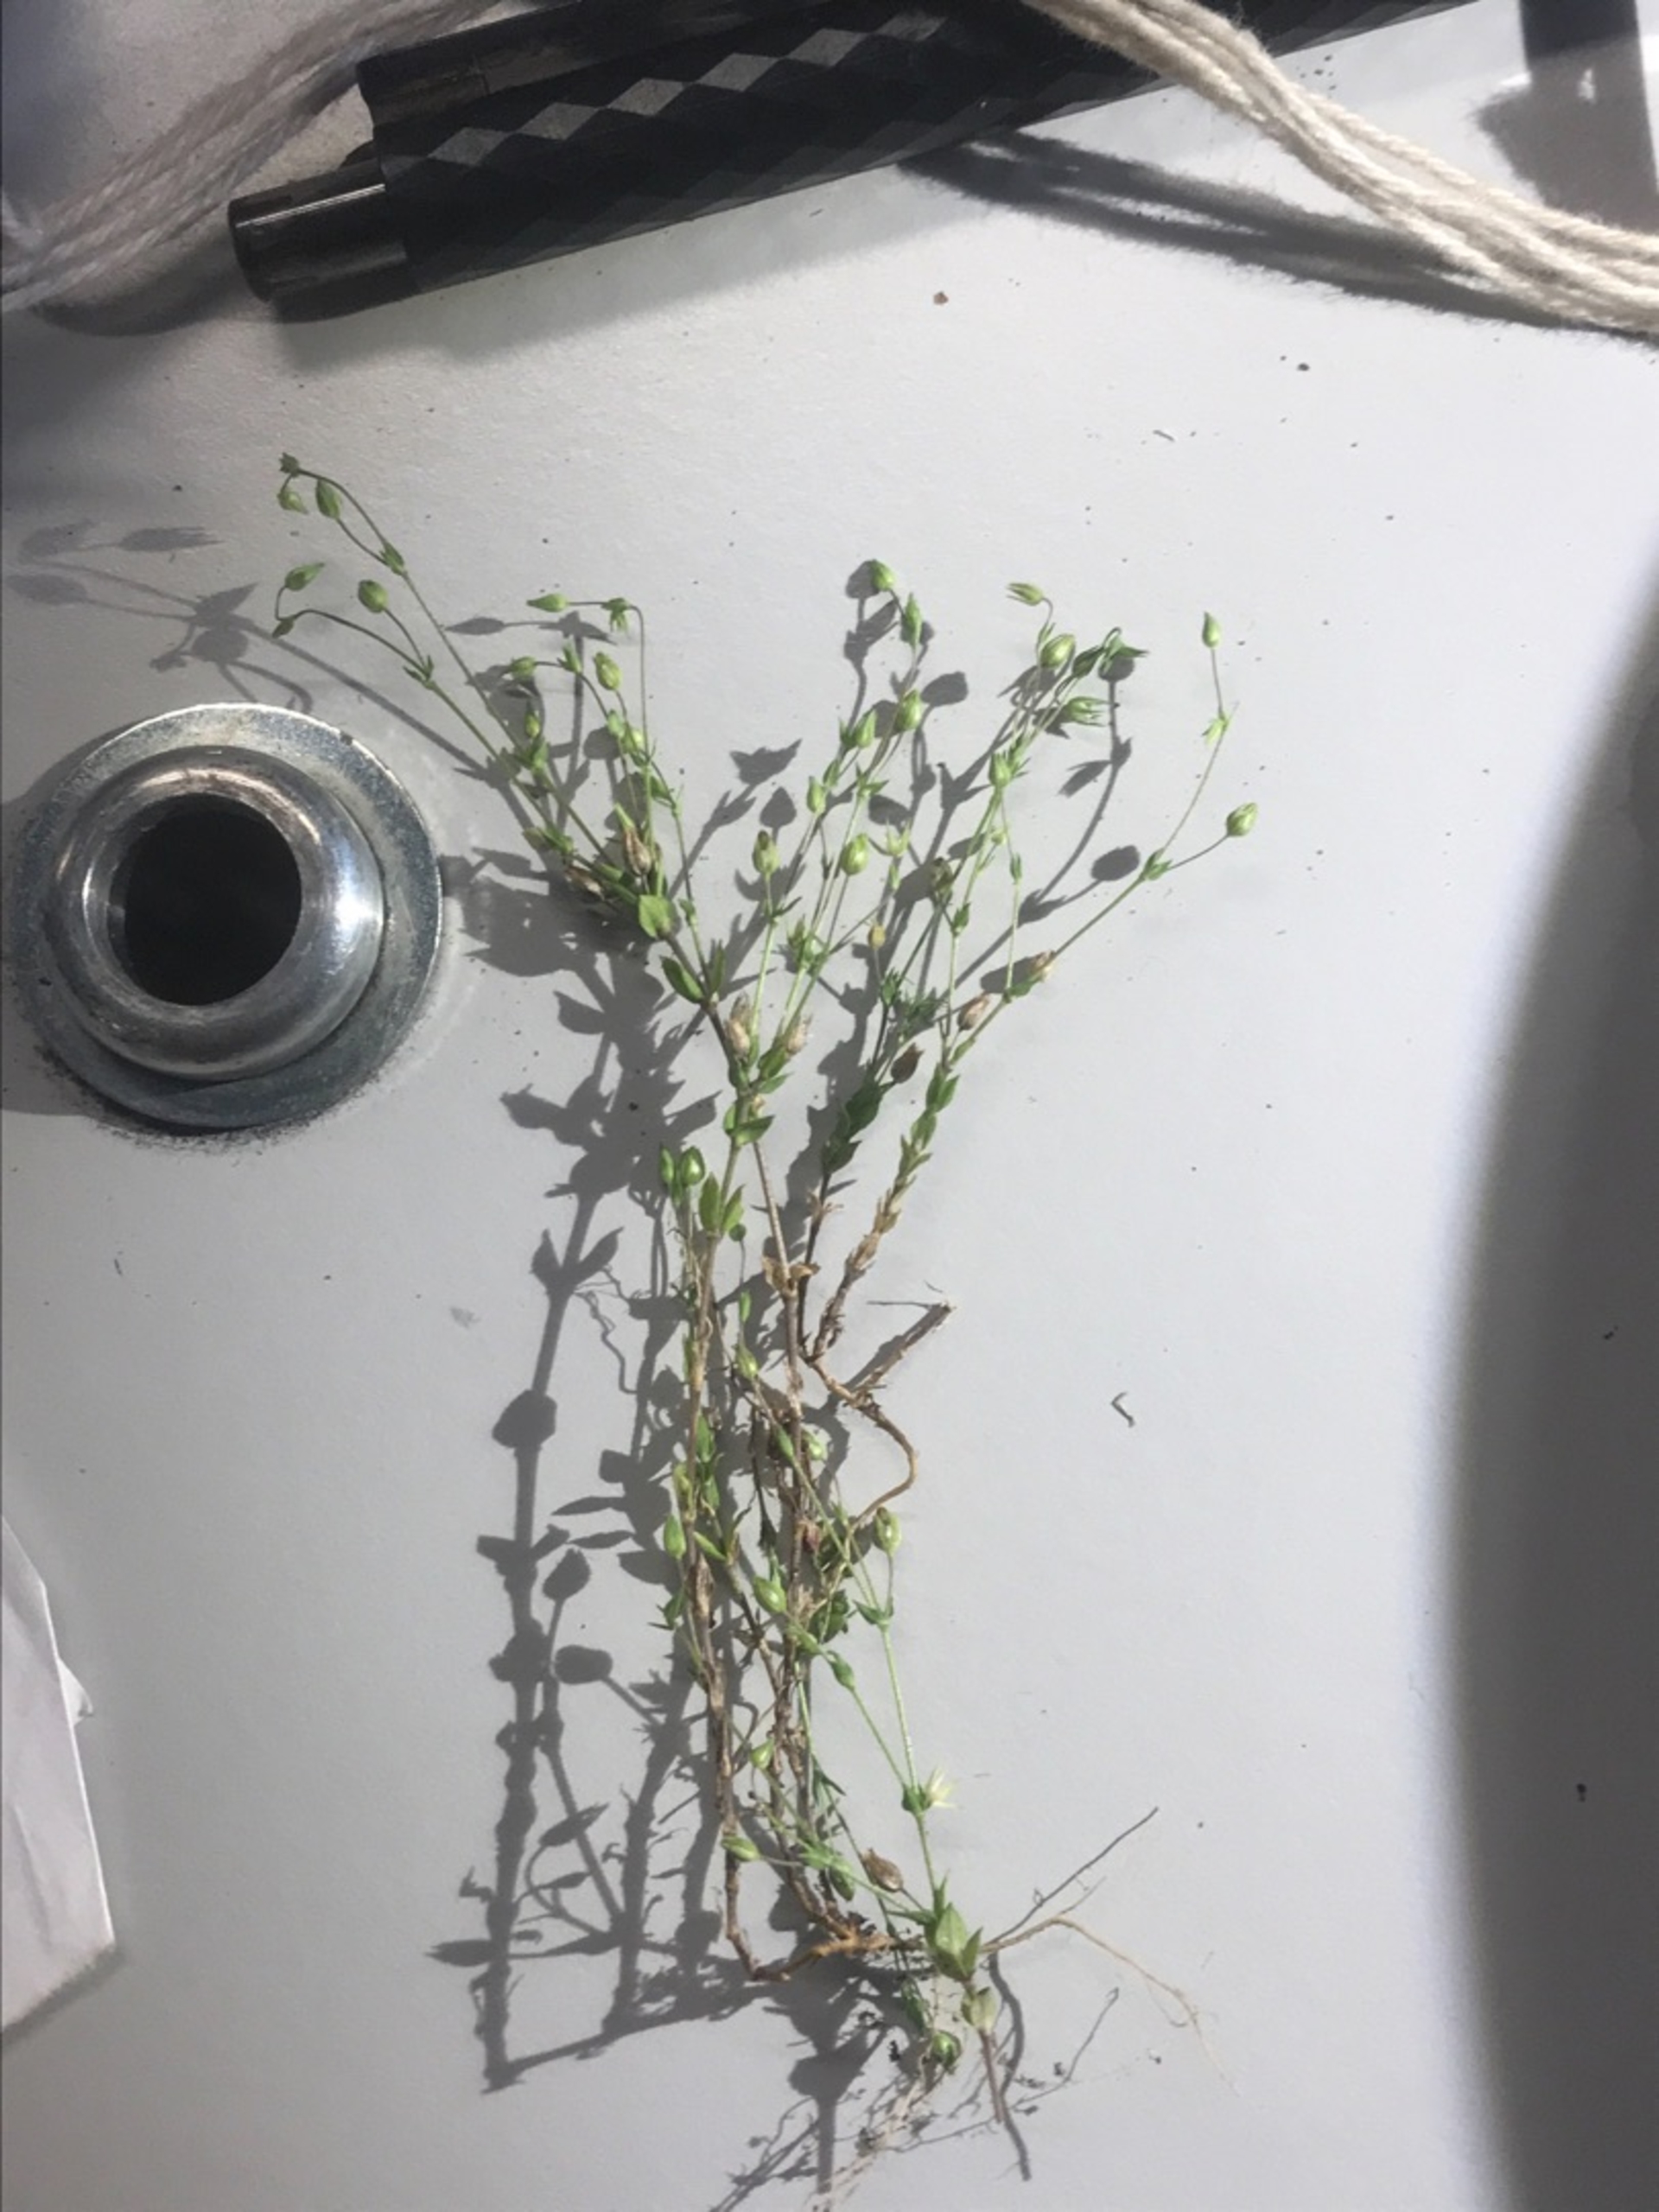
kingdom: Plantae
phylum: Tracheophyta
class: Magnoliopsida
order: Caryophyllales
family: Caryophyllaceae
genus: Arenaria
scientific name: Arenaria serpyllifolia
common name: Almindelig markarve
